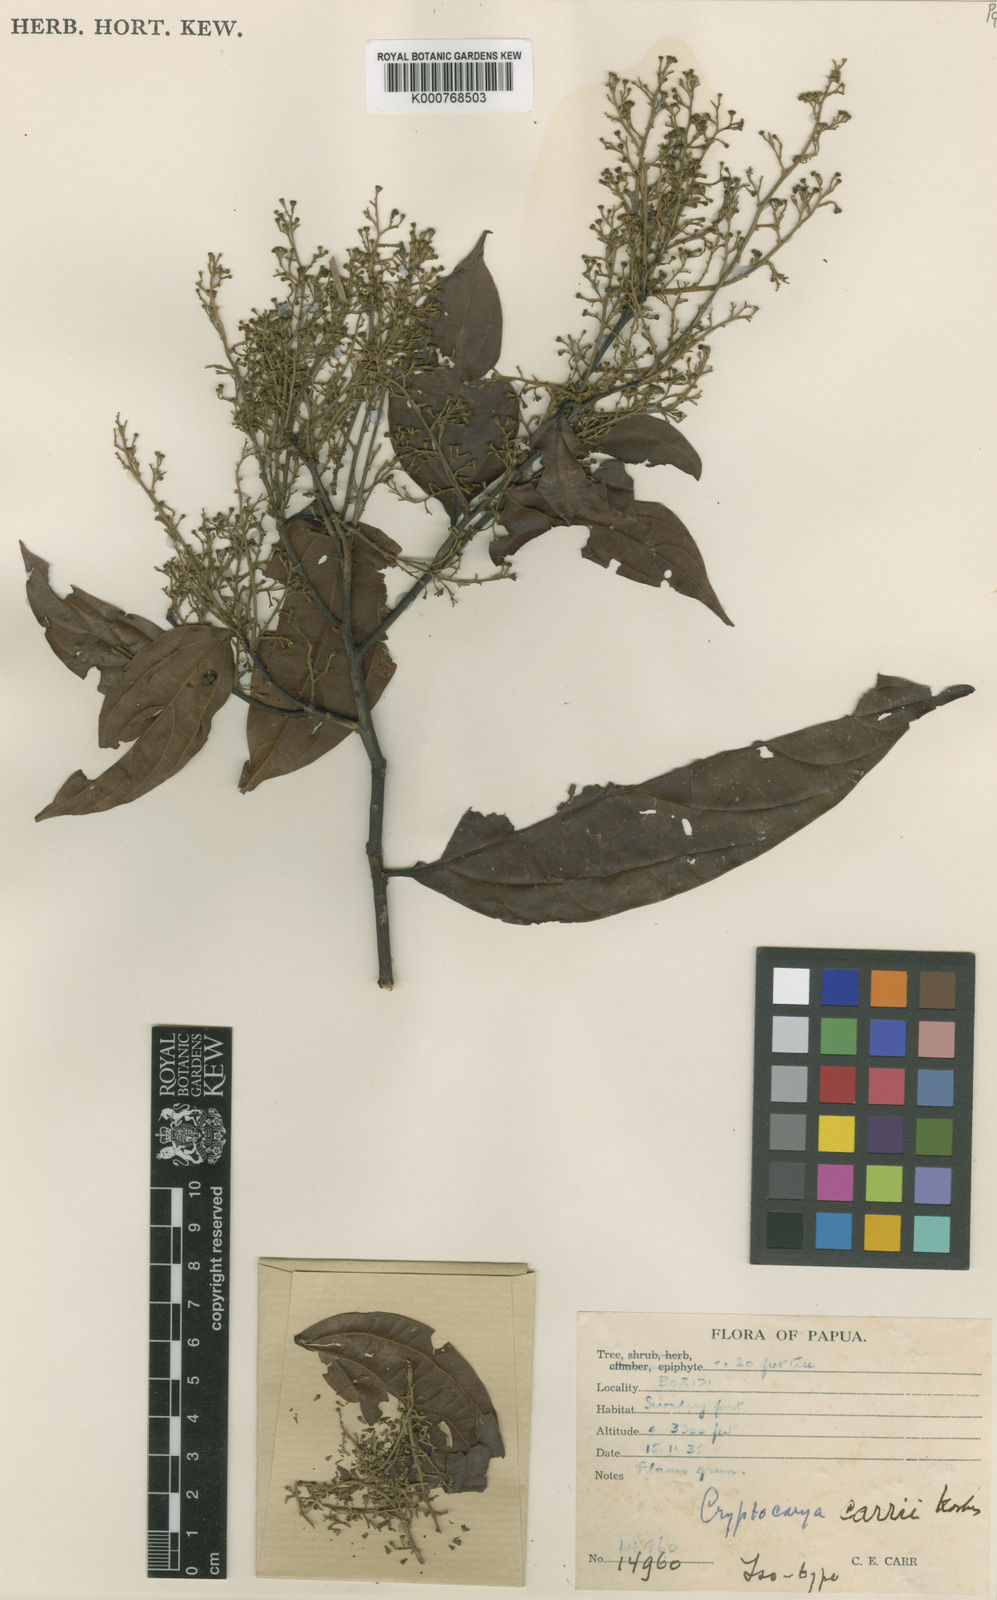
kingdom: Plantae
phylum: Tracheophyta
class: Magnoliopsida
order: Laurales
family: Lauraceae
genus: Cryptocarya
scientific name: Cryptocarya carrii
